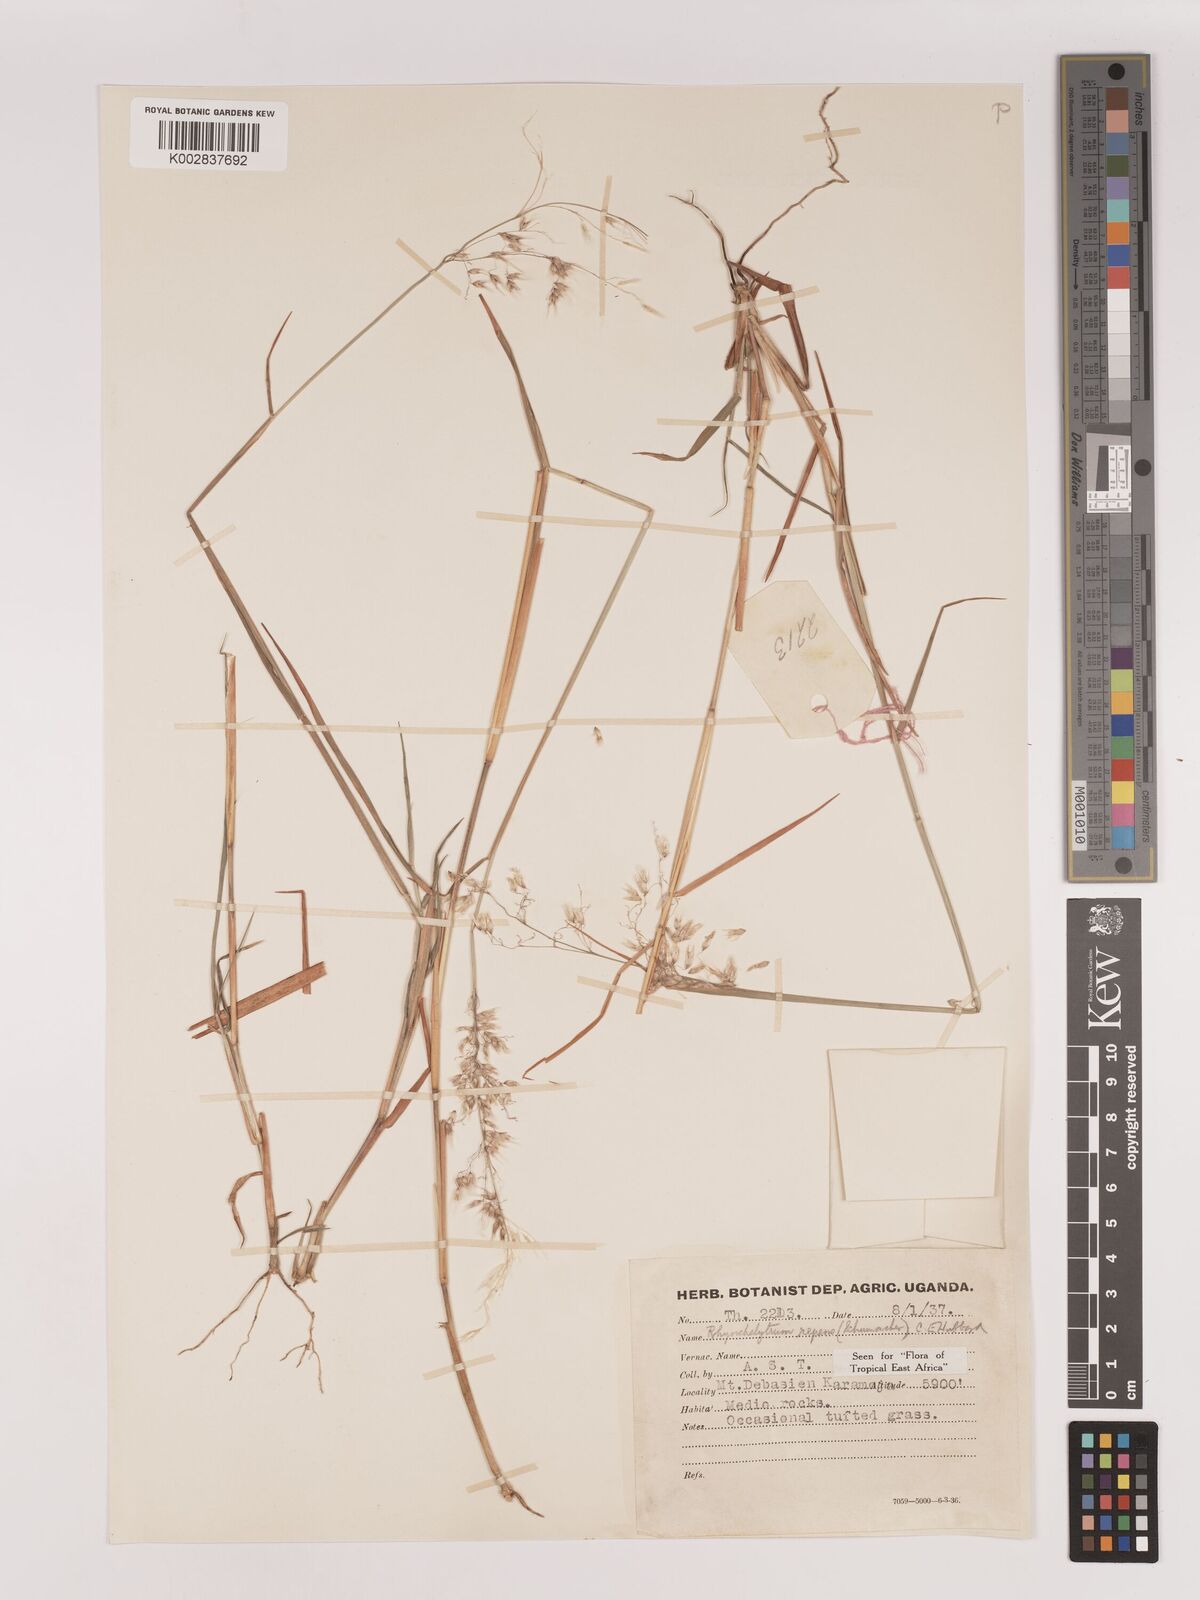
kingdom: Plantae
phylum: Tracheophyta
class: Liliopsida
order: Poales
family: Poaceae
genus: Melinis
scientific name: Melinis repens
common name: Rose natal grass
